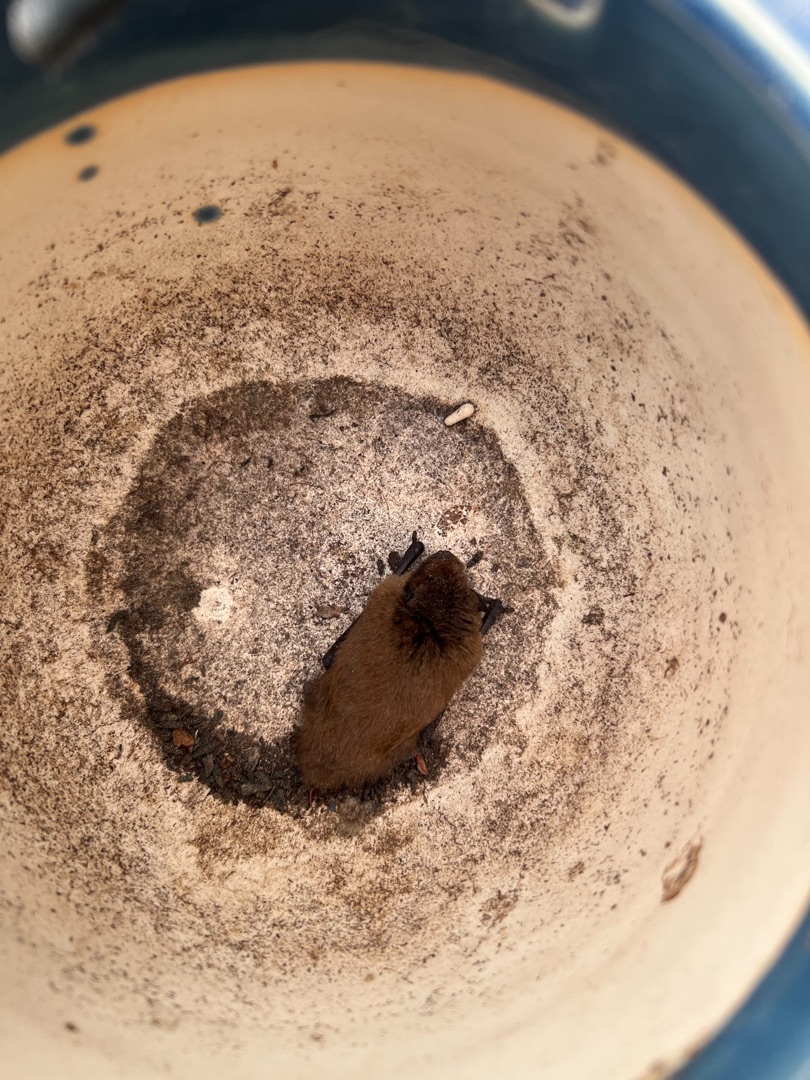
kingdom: Animalia
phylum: Chordata
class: Mammalia
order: Chiroptera
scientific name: Chiroptera
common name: Flagermus
